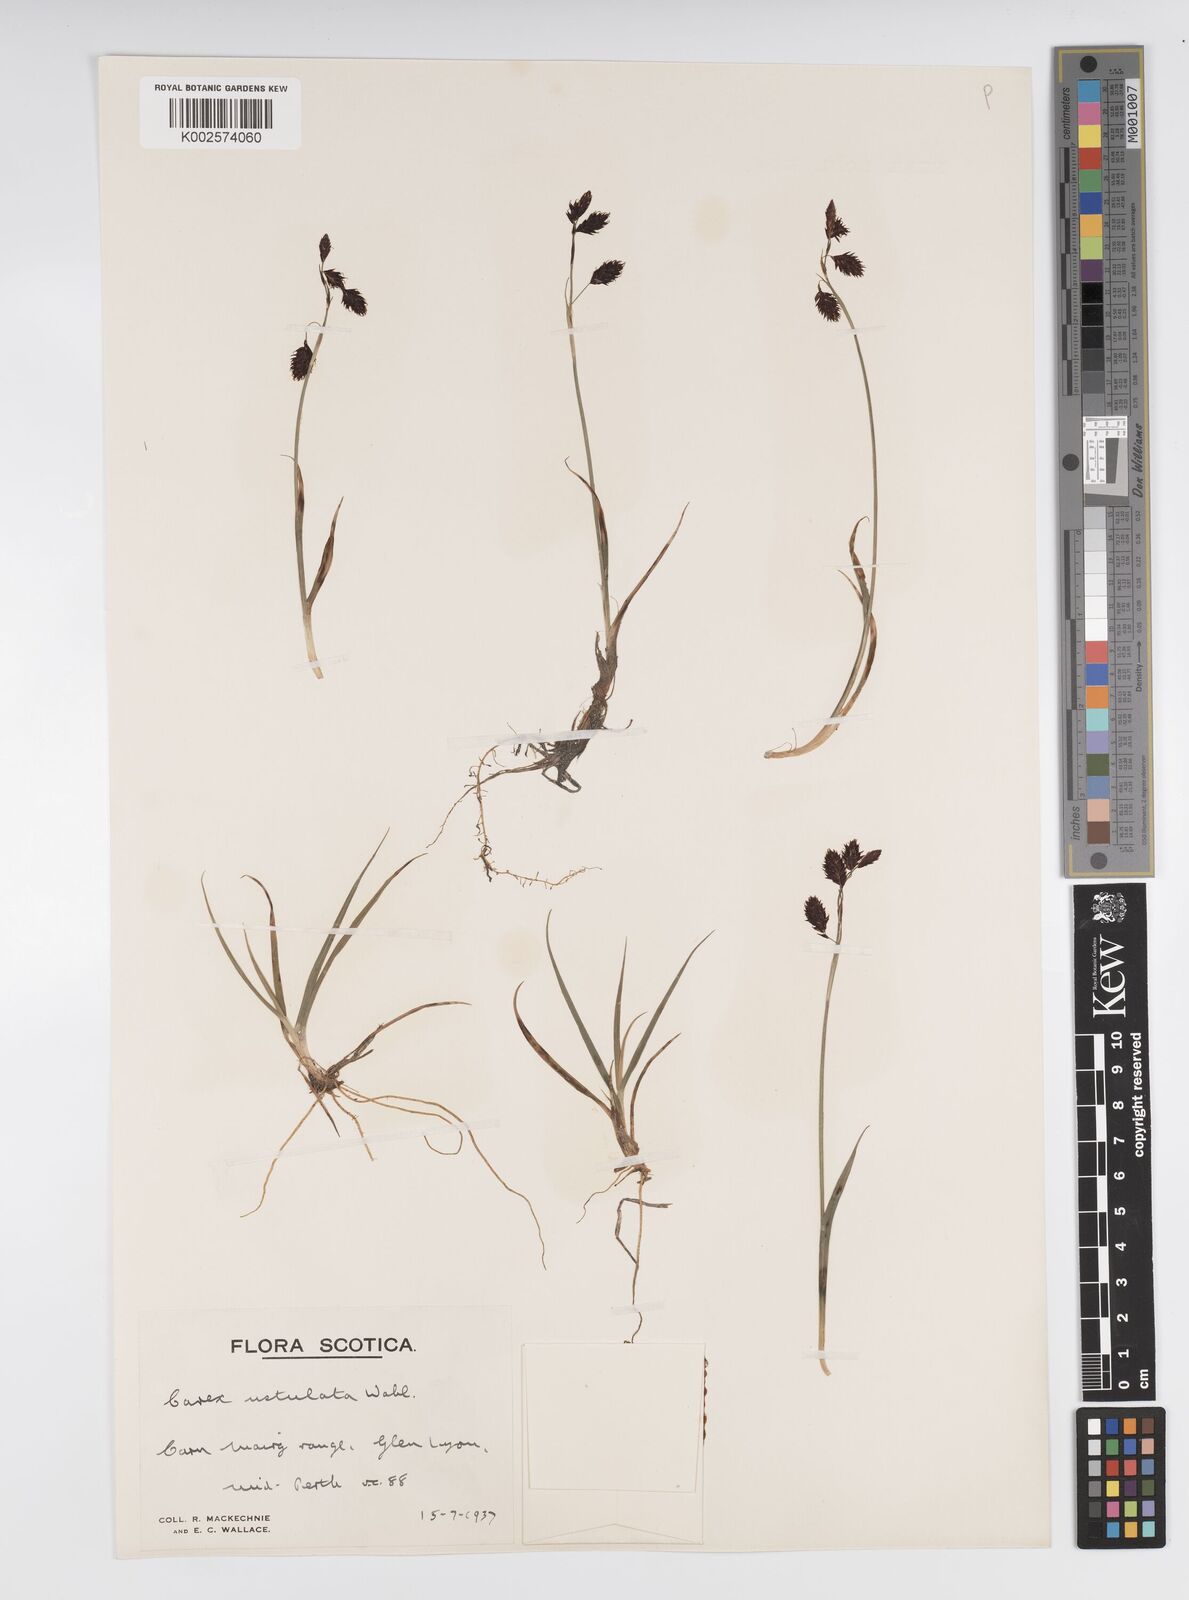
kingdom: Plantae
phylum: Tracheophyta
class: Liliopsida
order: Poales
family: Cyperaceae
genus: Carex
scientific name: Carex atrofusca
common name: Scorched alpine-sedge
